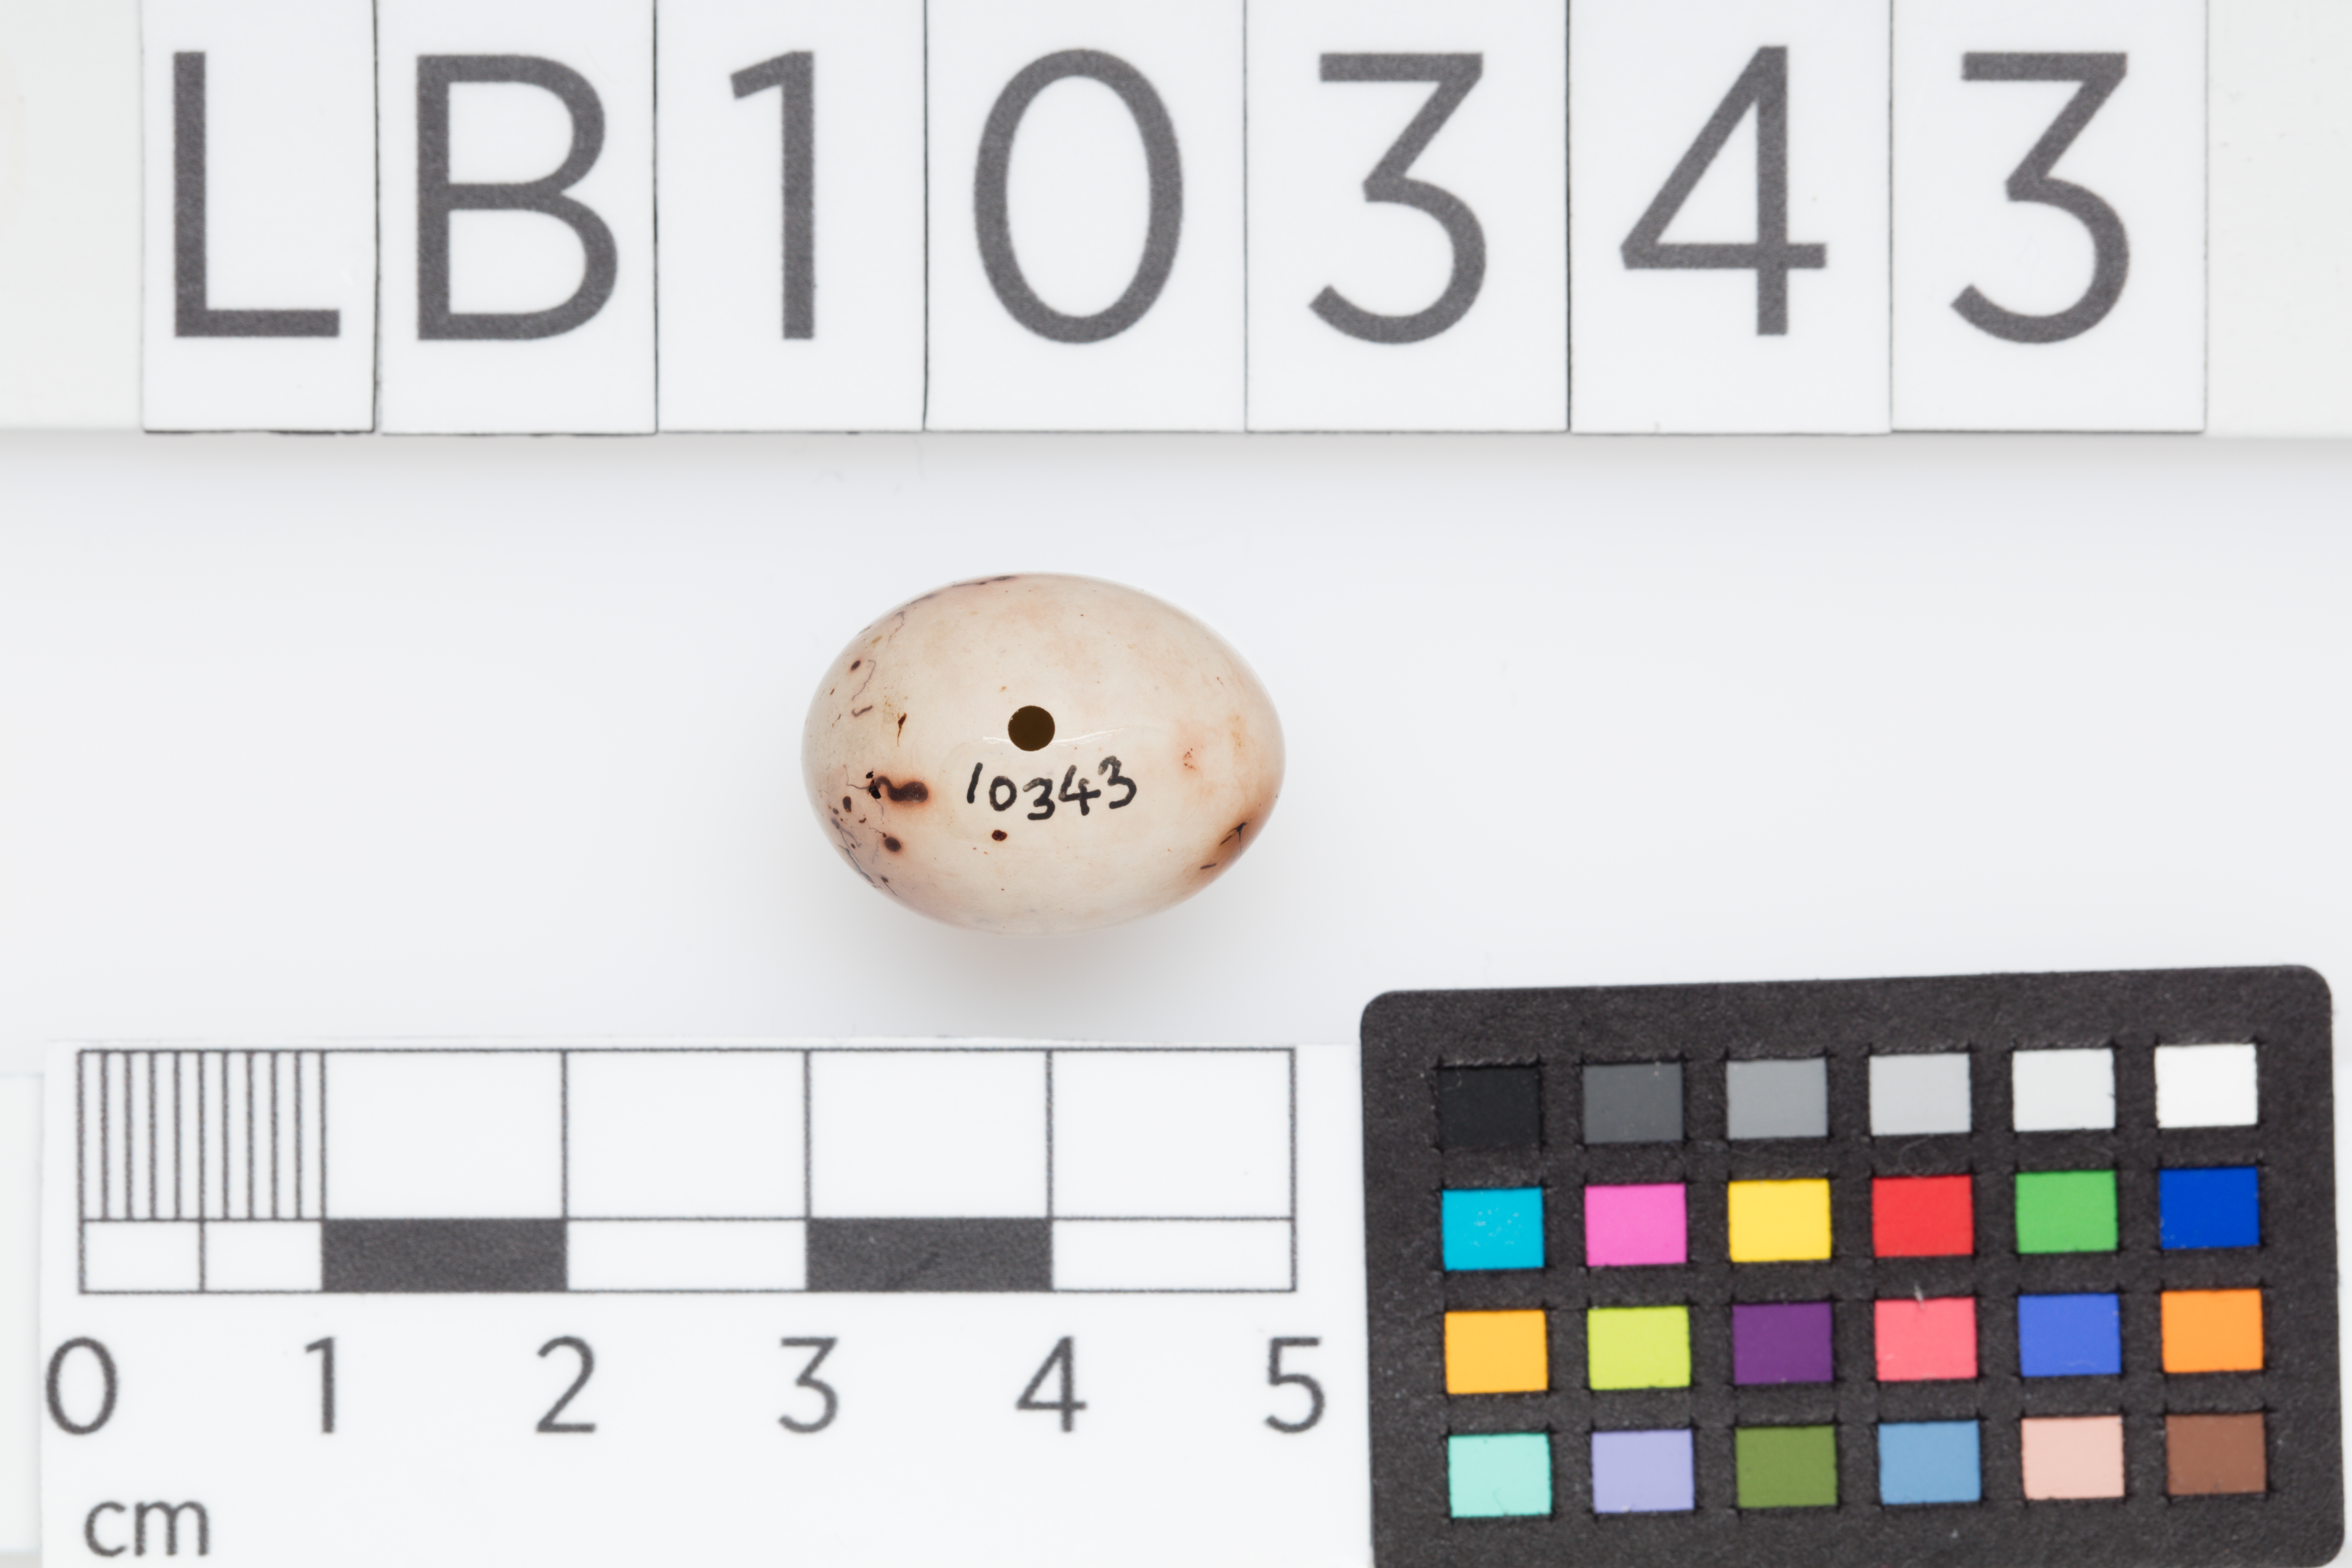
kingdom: Animalia
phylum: Chordata
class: Aves
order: Passeriformes
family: Fringillidae
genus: Fringilla
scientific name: Fringilla coelebs
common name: Common chaffinch
